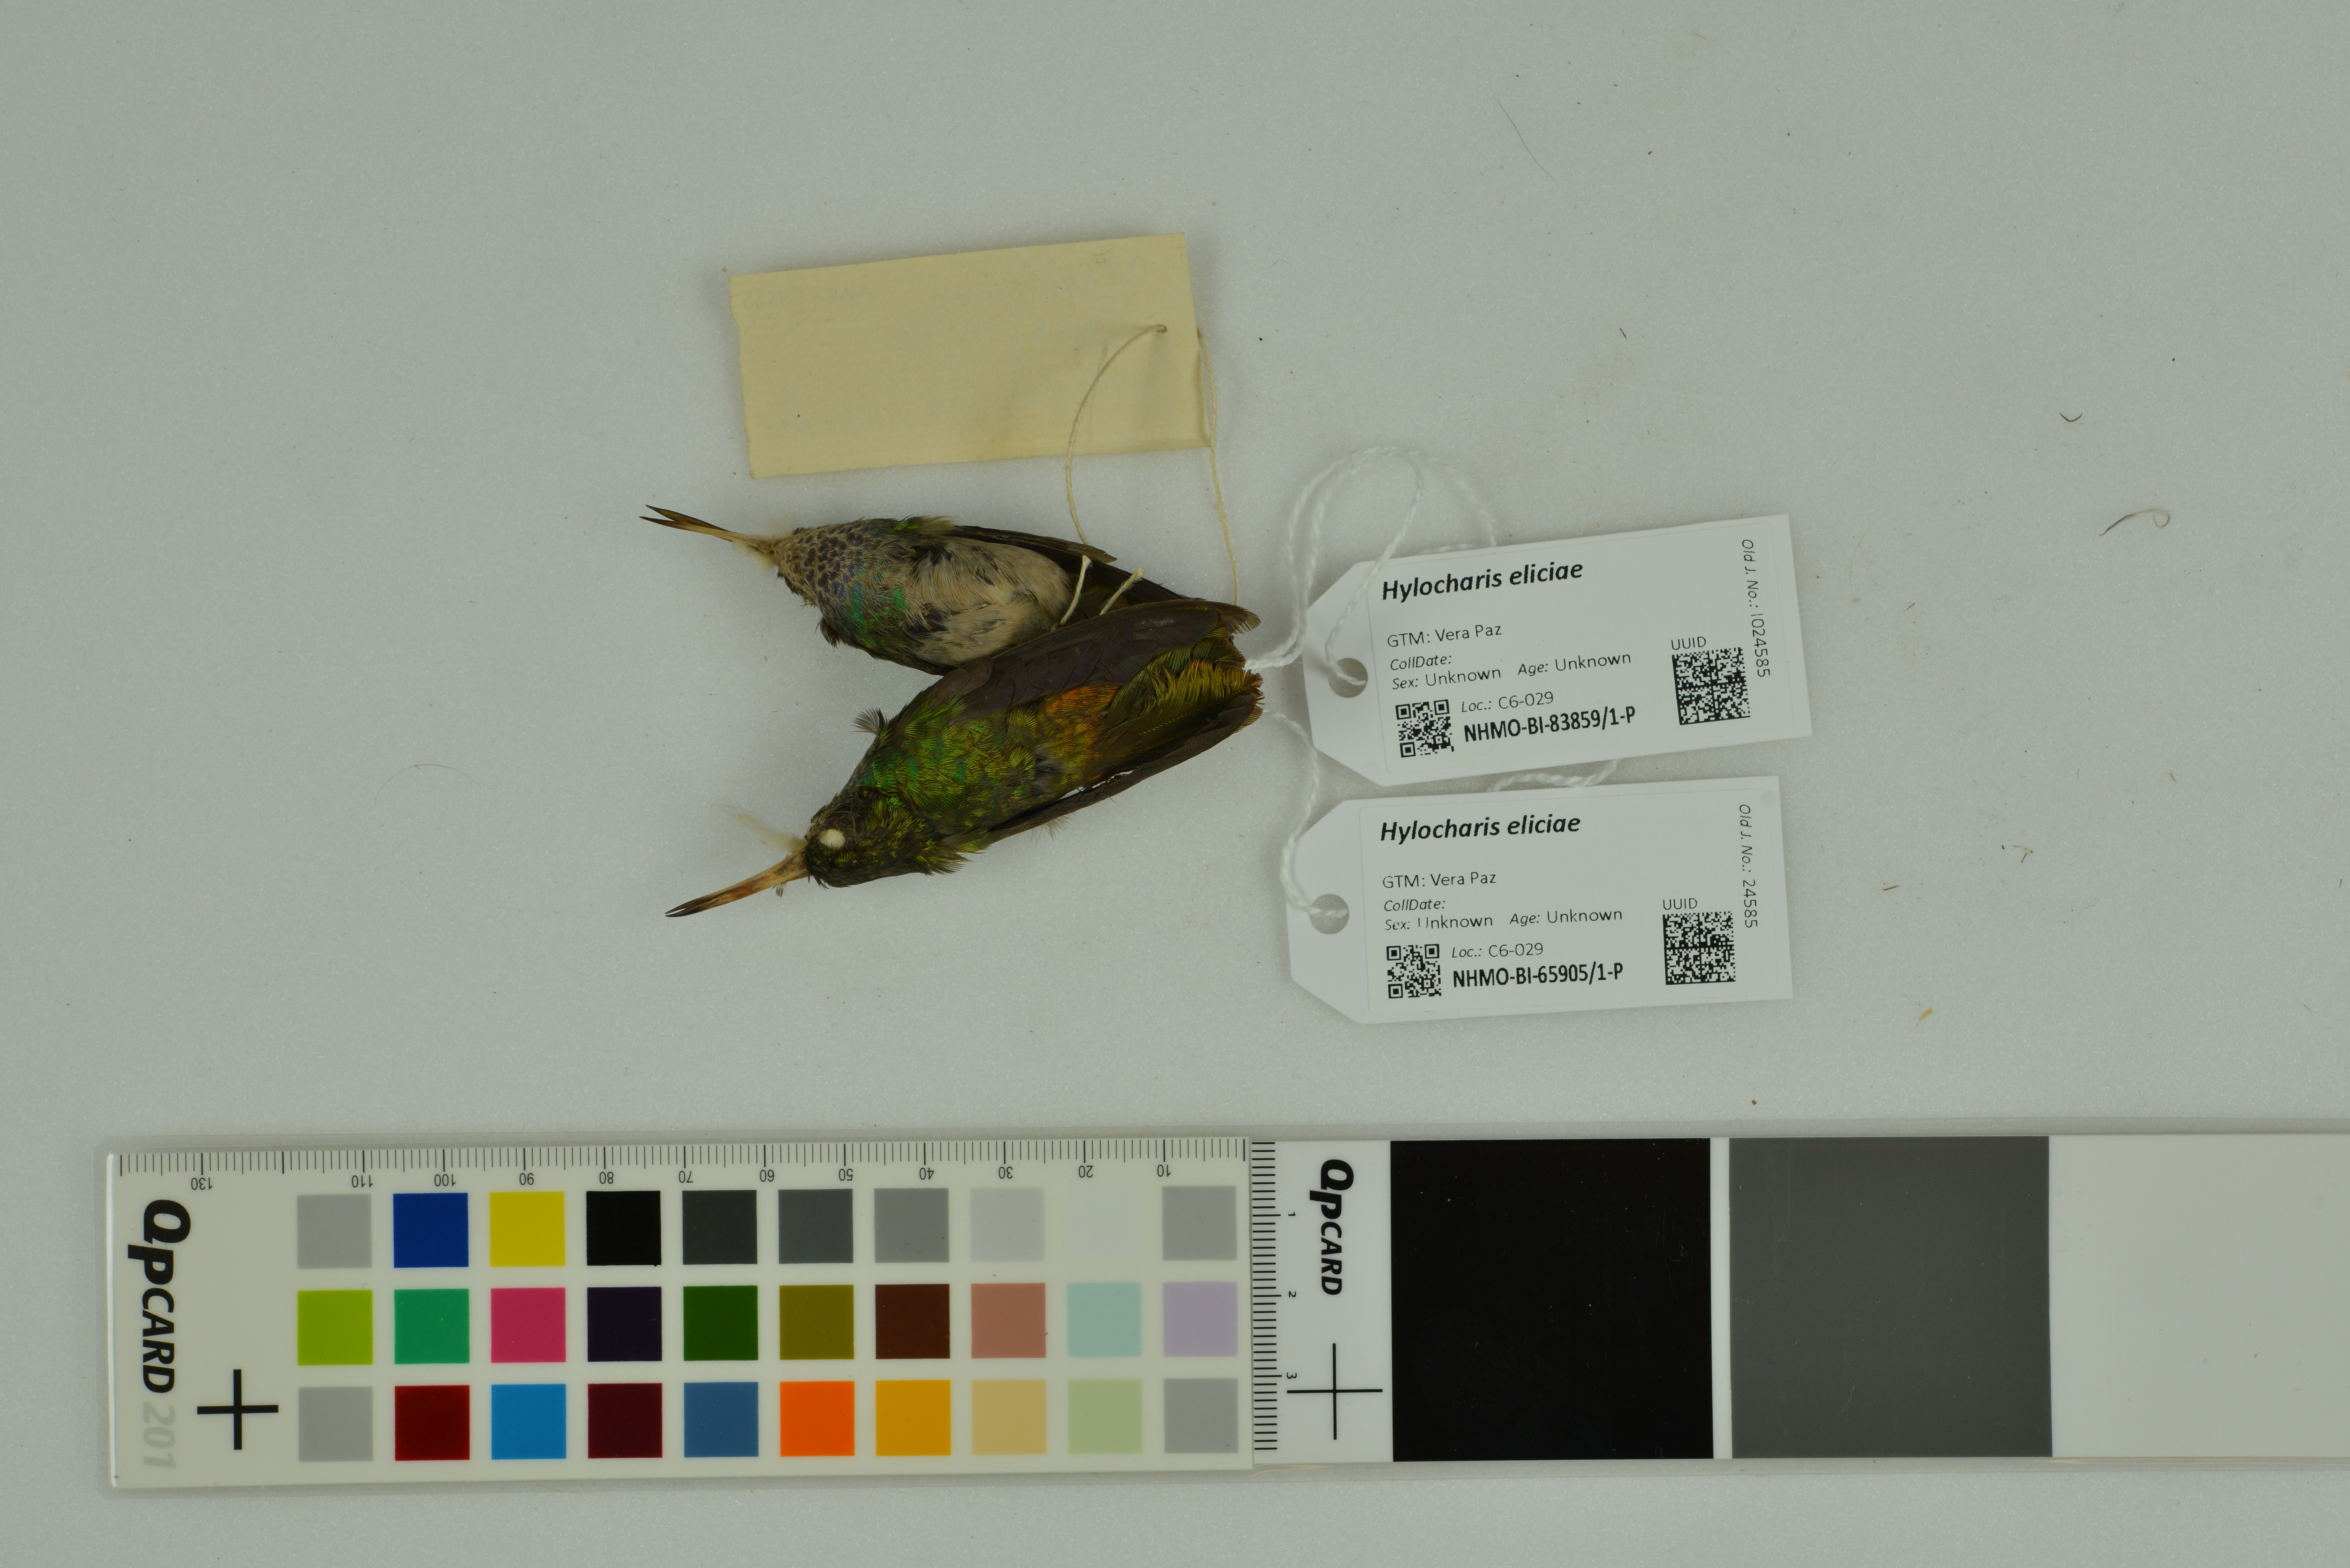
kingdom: Animalia
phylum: Chordata
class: Aves
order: Apodiformes
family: Trochilidae
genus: Chlorestes
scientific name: Chlorestes eliciae
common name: Blue-throated sapphire
